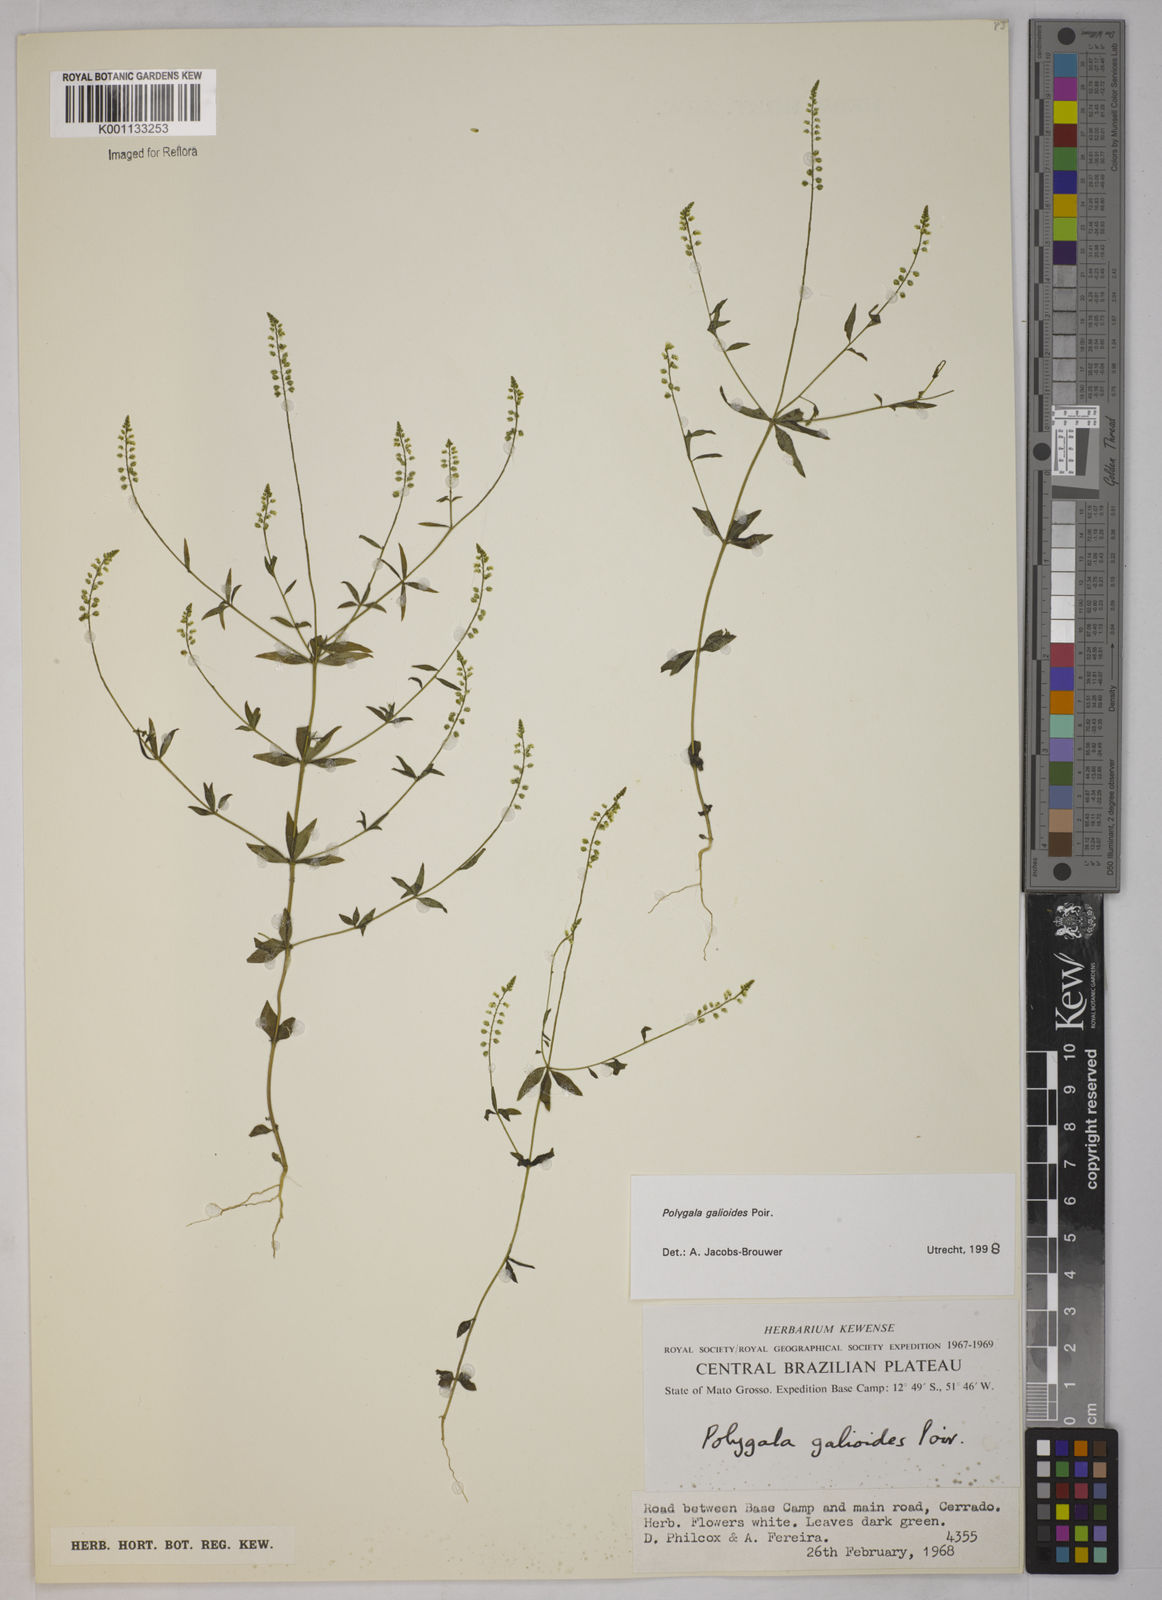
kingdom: Plantae
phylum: Tracheophyta
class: Magnoliopsida
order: Fabales
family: Polygalaceae
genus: Polygala
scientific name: Polygala galioides
